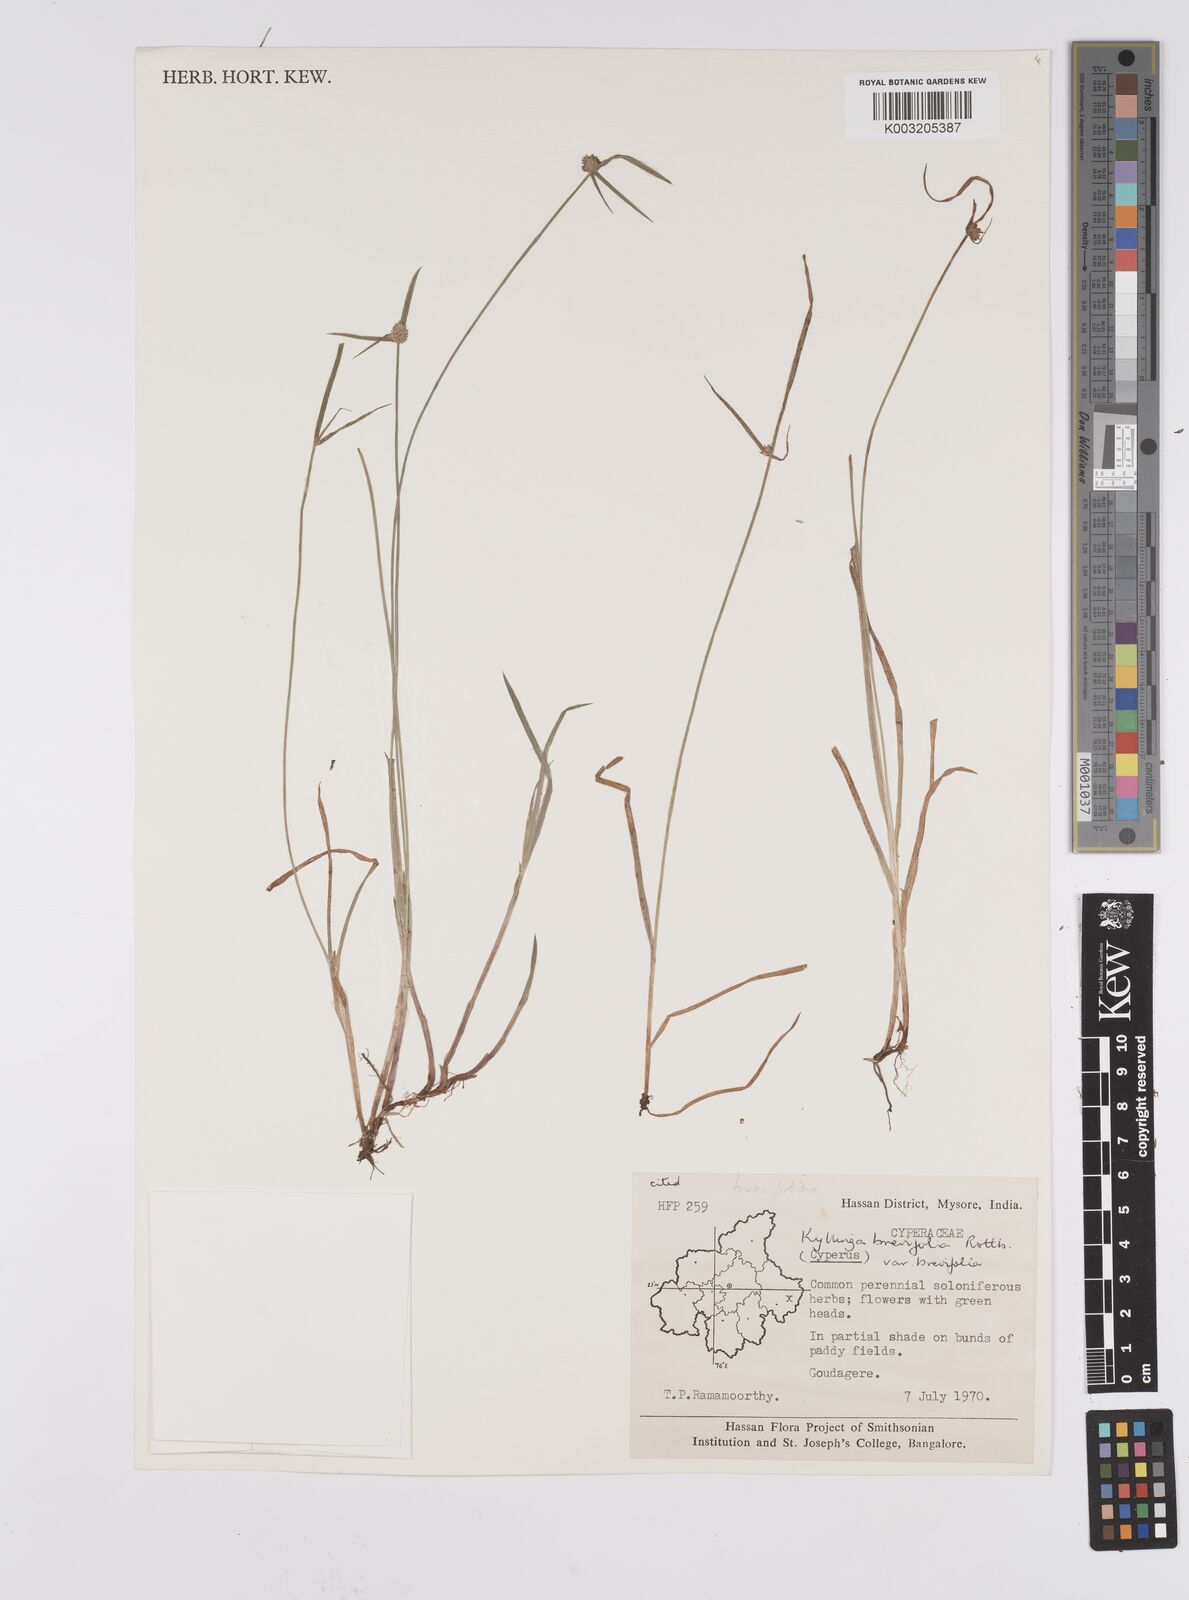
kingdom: Plantae
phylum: Tracheophyta
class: Liliopsida
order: Poales
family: Cyperaceae
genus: Cyperus
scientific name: Cyperus brevifolius
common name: Globe kyllinga
